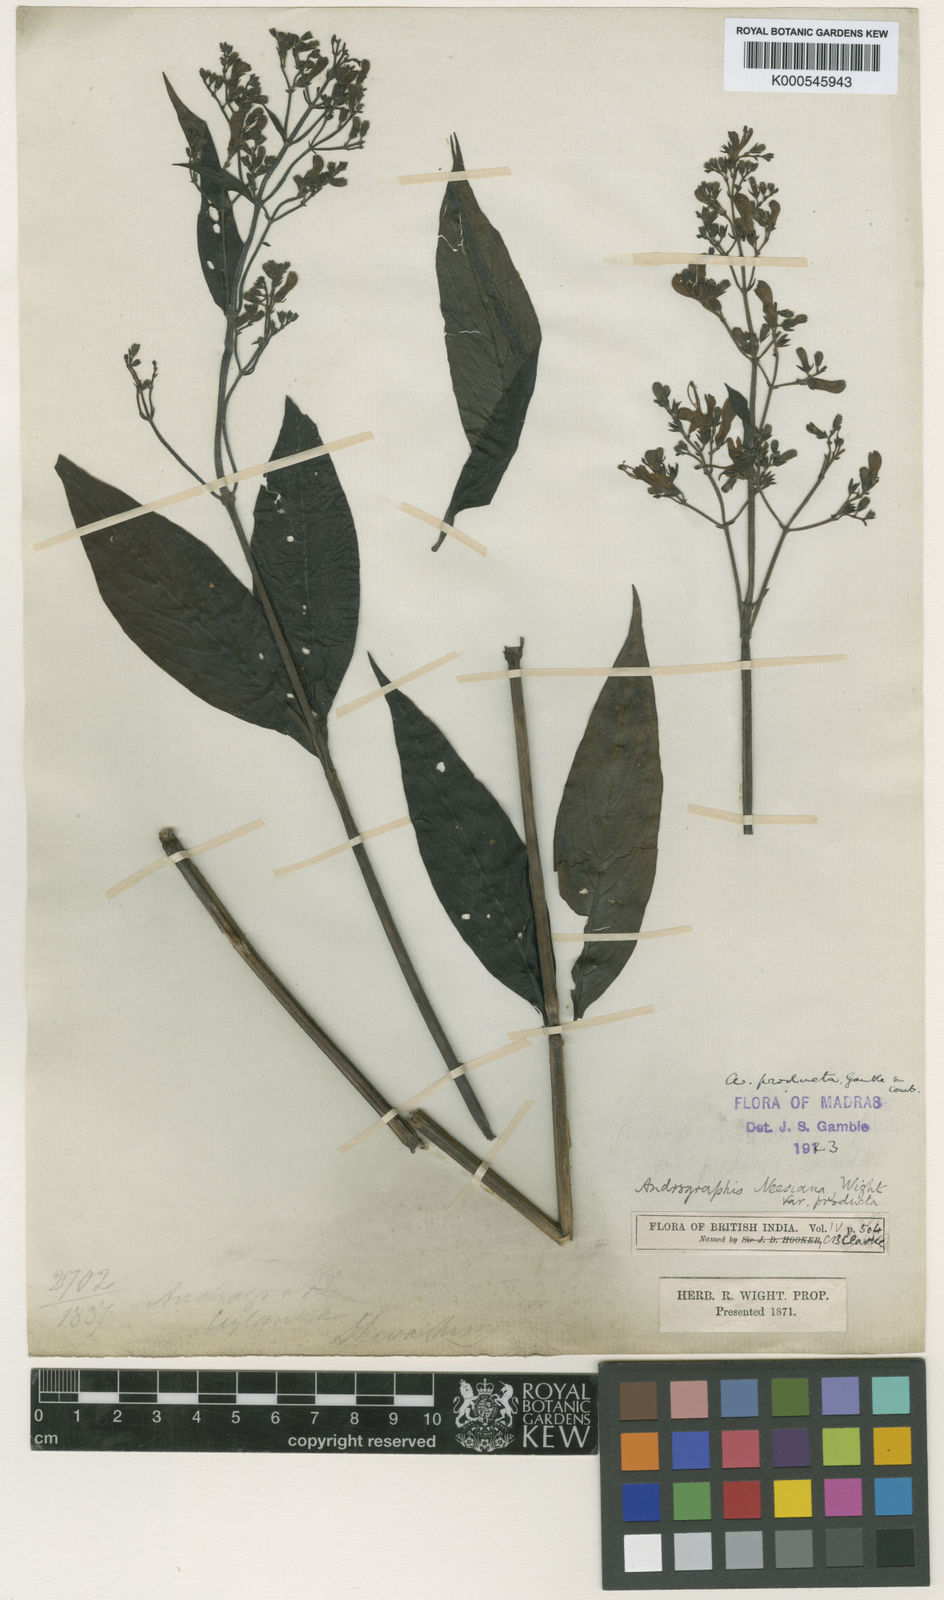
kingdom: Plantae
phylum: Tracheophyta
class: Magnoliopsida
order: Lamiales
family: Acanthaceae
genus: Andrographis
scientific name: Andrographis producta
